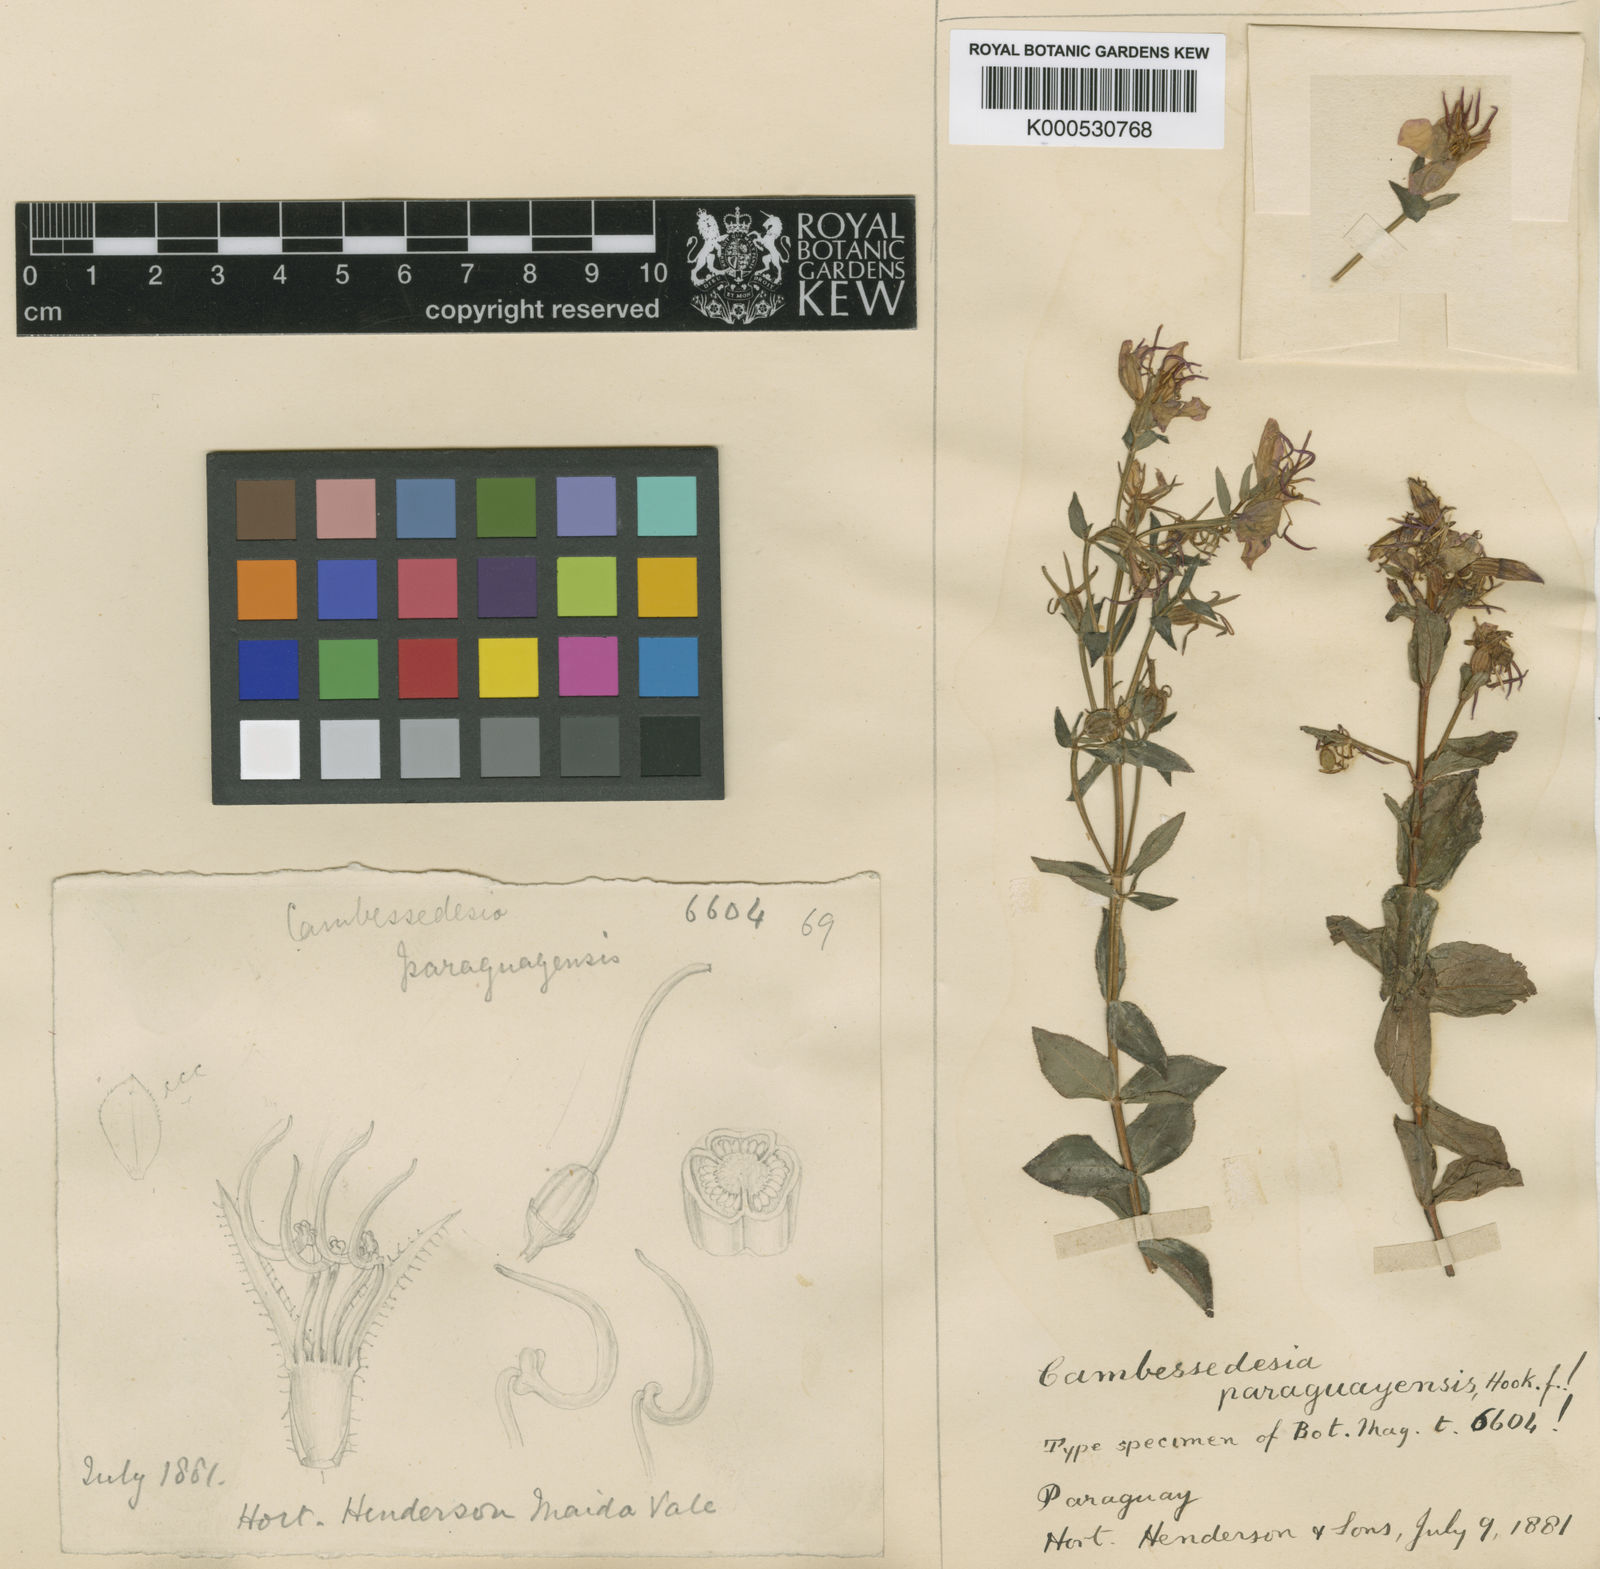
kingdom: Plantae
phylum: Tracheophyta
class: Magnoliopsida
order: Myrtales
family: Melastomataceae
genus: Acisanthera
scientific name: Acisanthera paraguayensis
